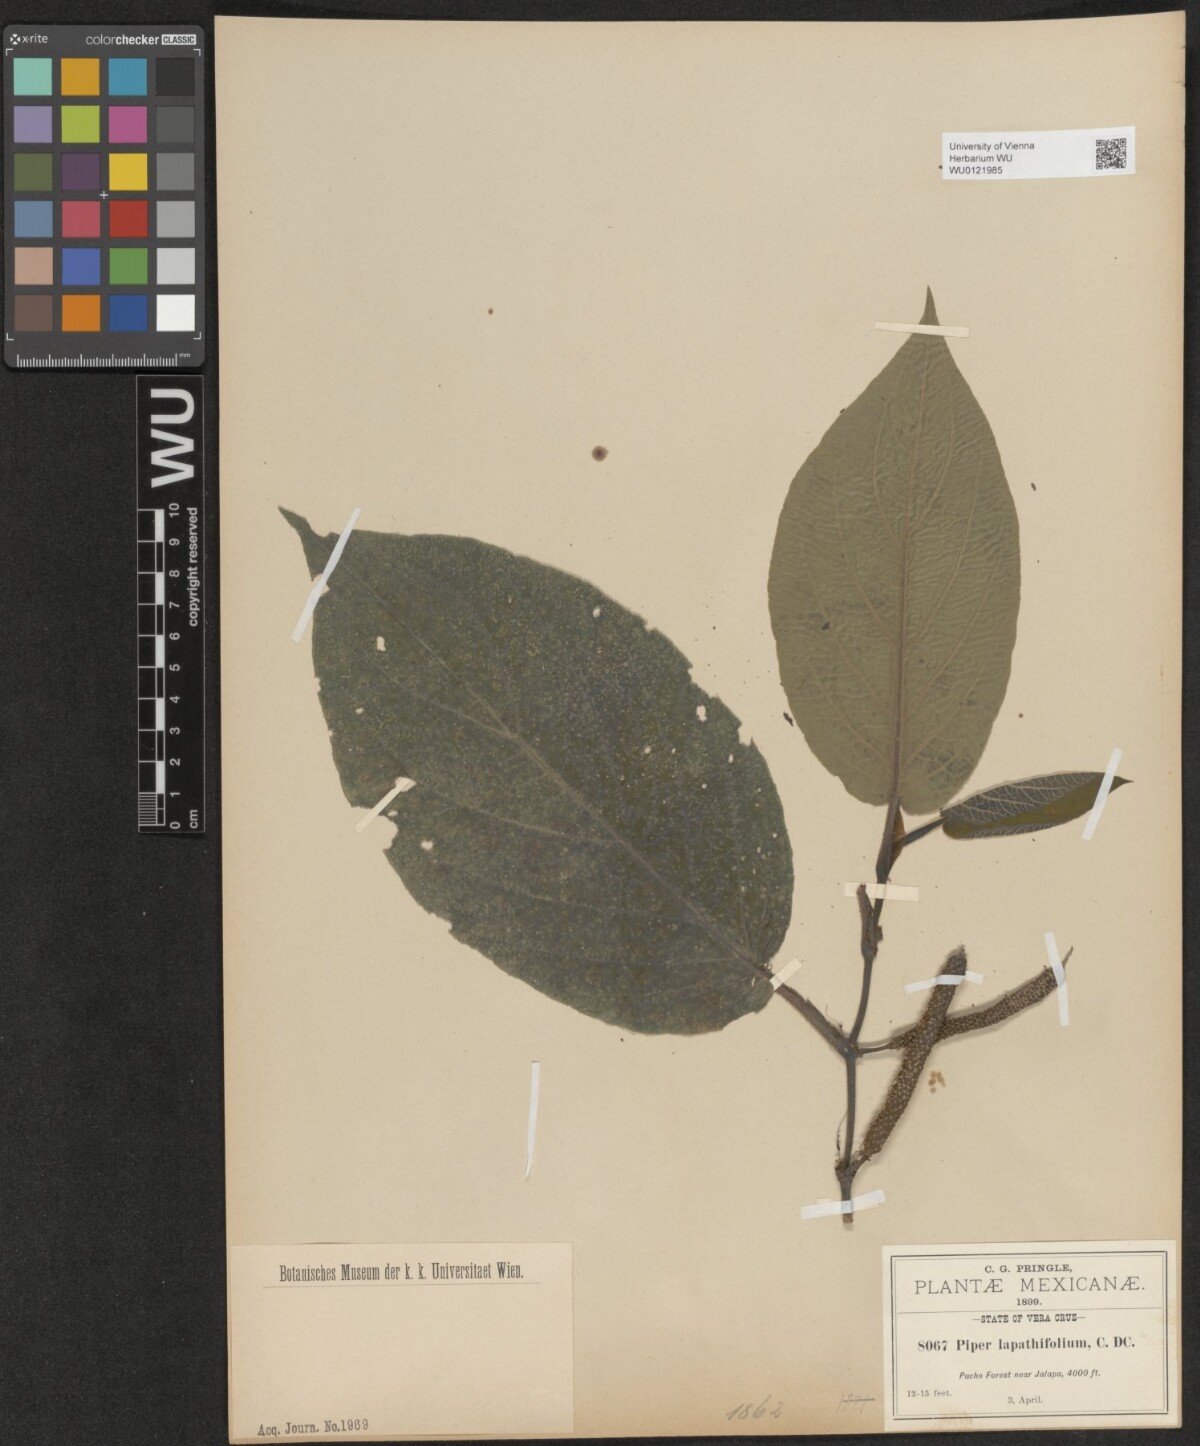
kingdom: Plantae
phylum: Tracheophyta
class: Magnoliopsida
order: Piperales
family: Piperaceae
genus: Piper
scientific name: Piper lapathifolium
